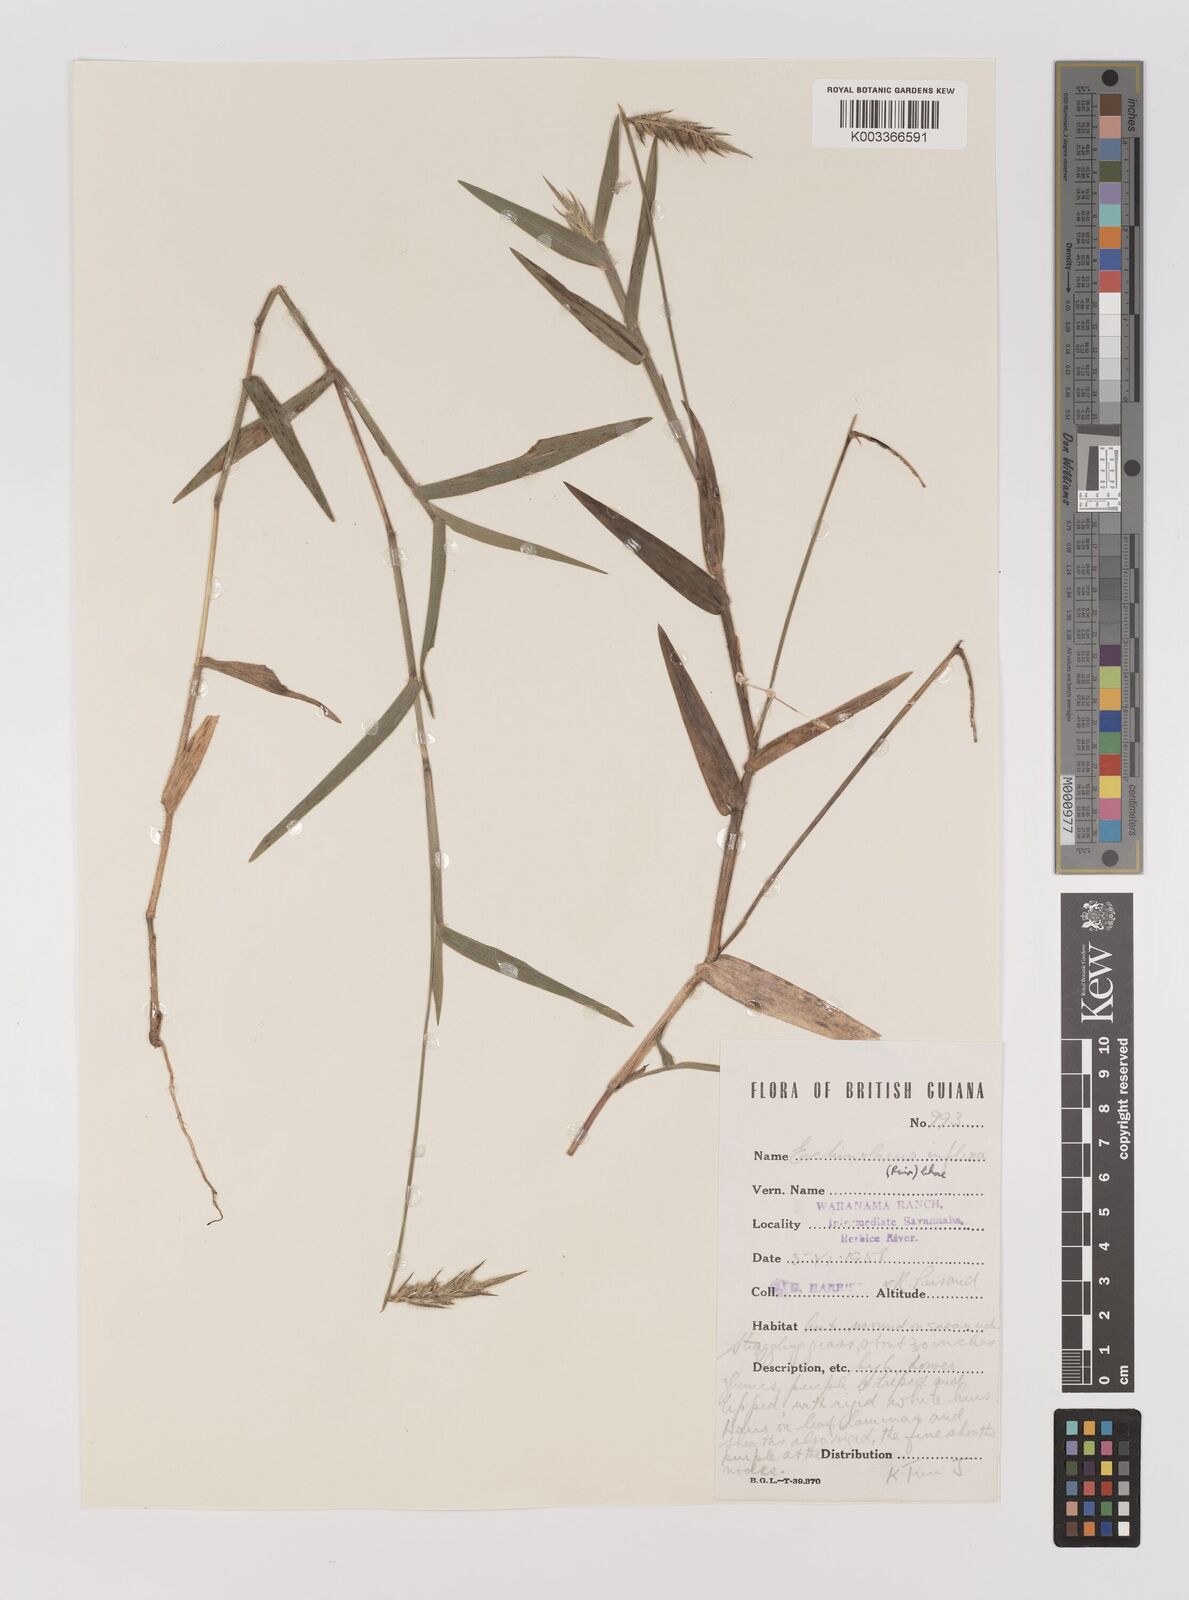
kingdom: Plantae
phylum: Tracheophyta
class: Liliopsida
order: Poales
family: Poaceae
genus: Echinolaena
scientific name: Echinolaena inflexa
